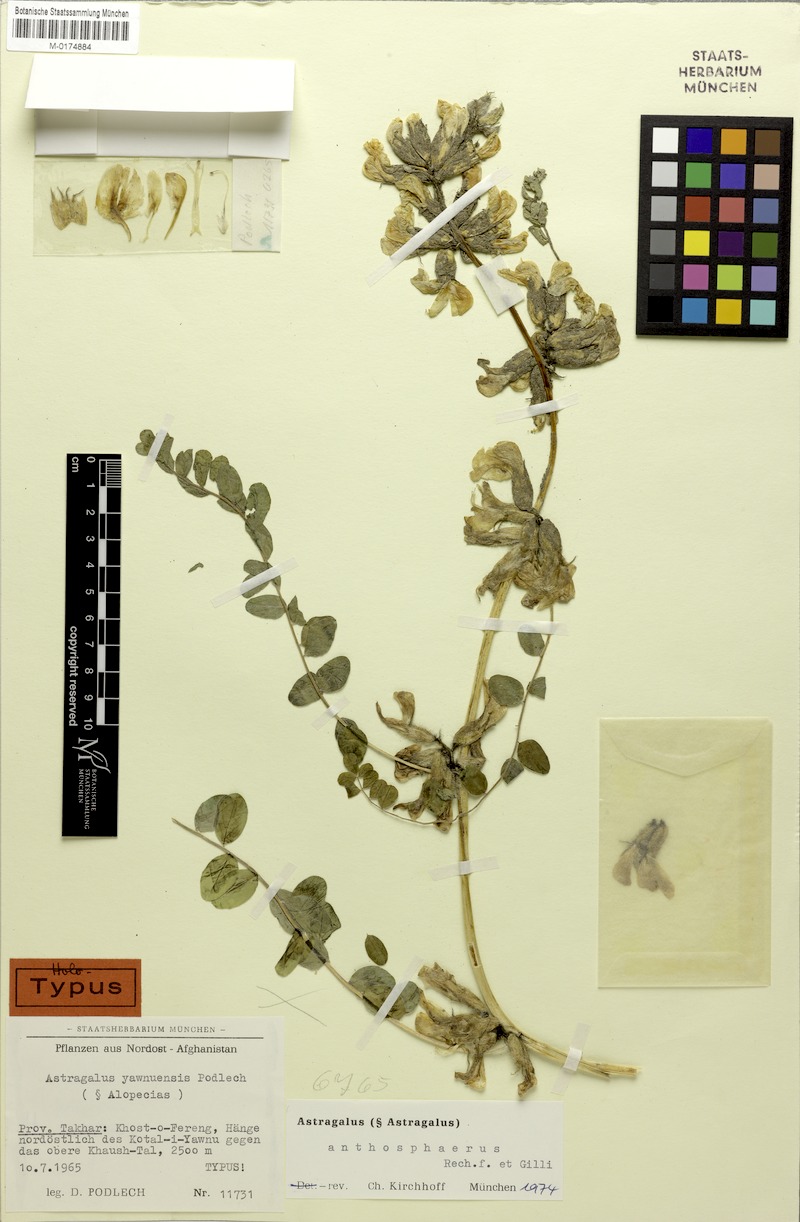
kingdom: Plantae
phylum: Tracheophyta
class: Magnoliopsida
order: Fabales
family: Fabaceae
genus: Astragalus
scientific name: Astragalus anthosphaerus
